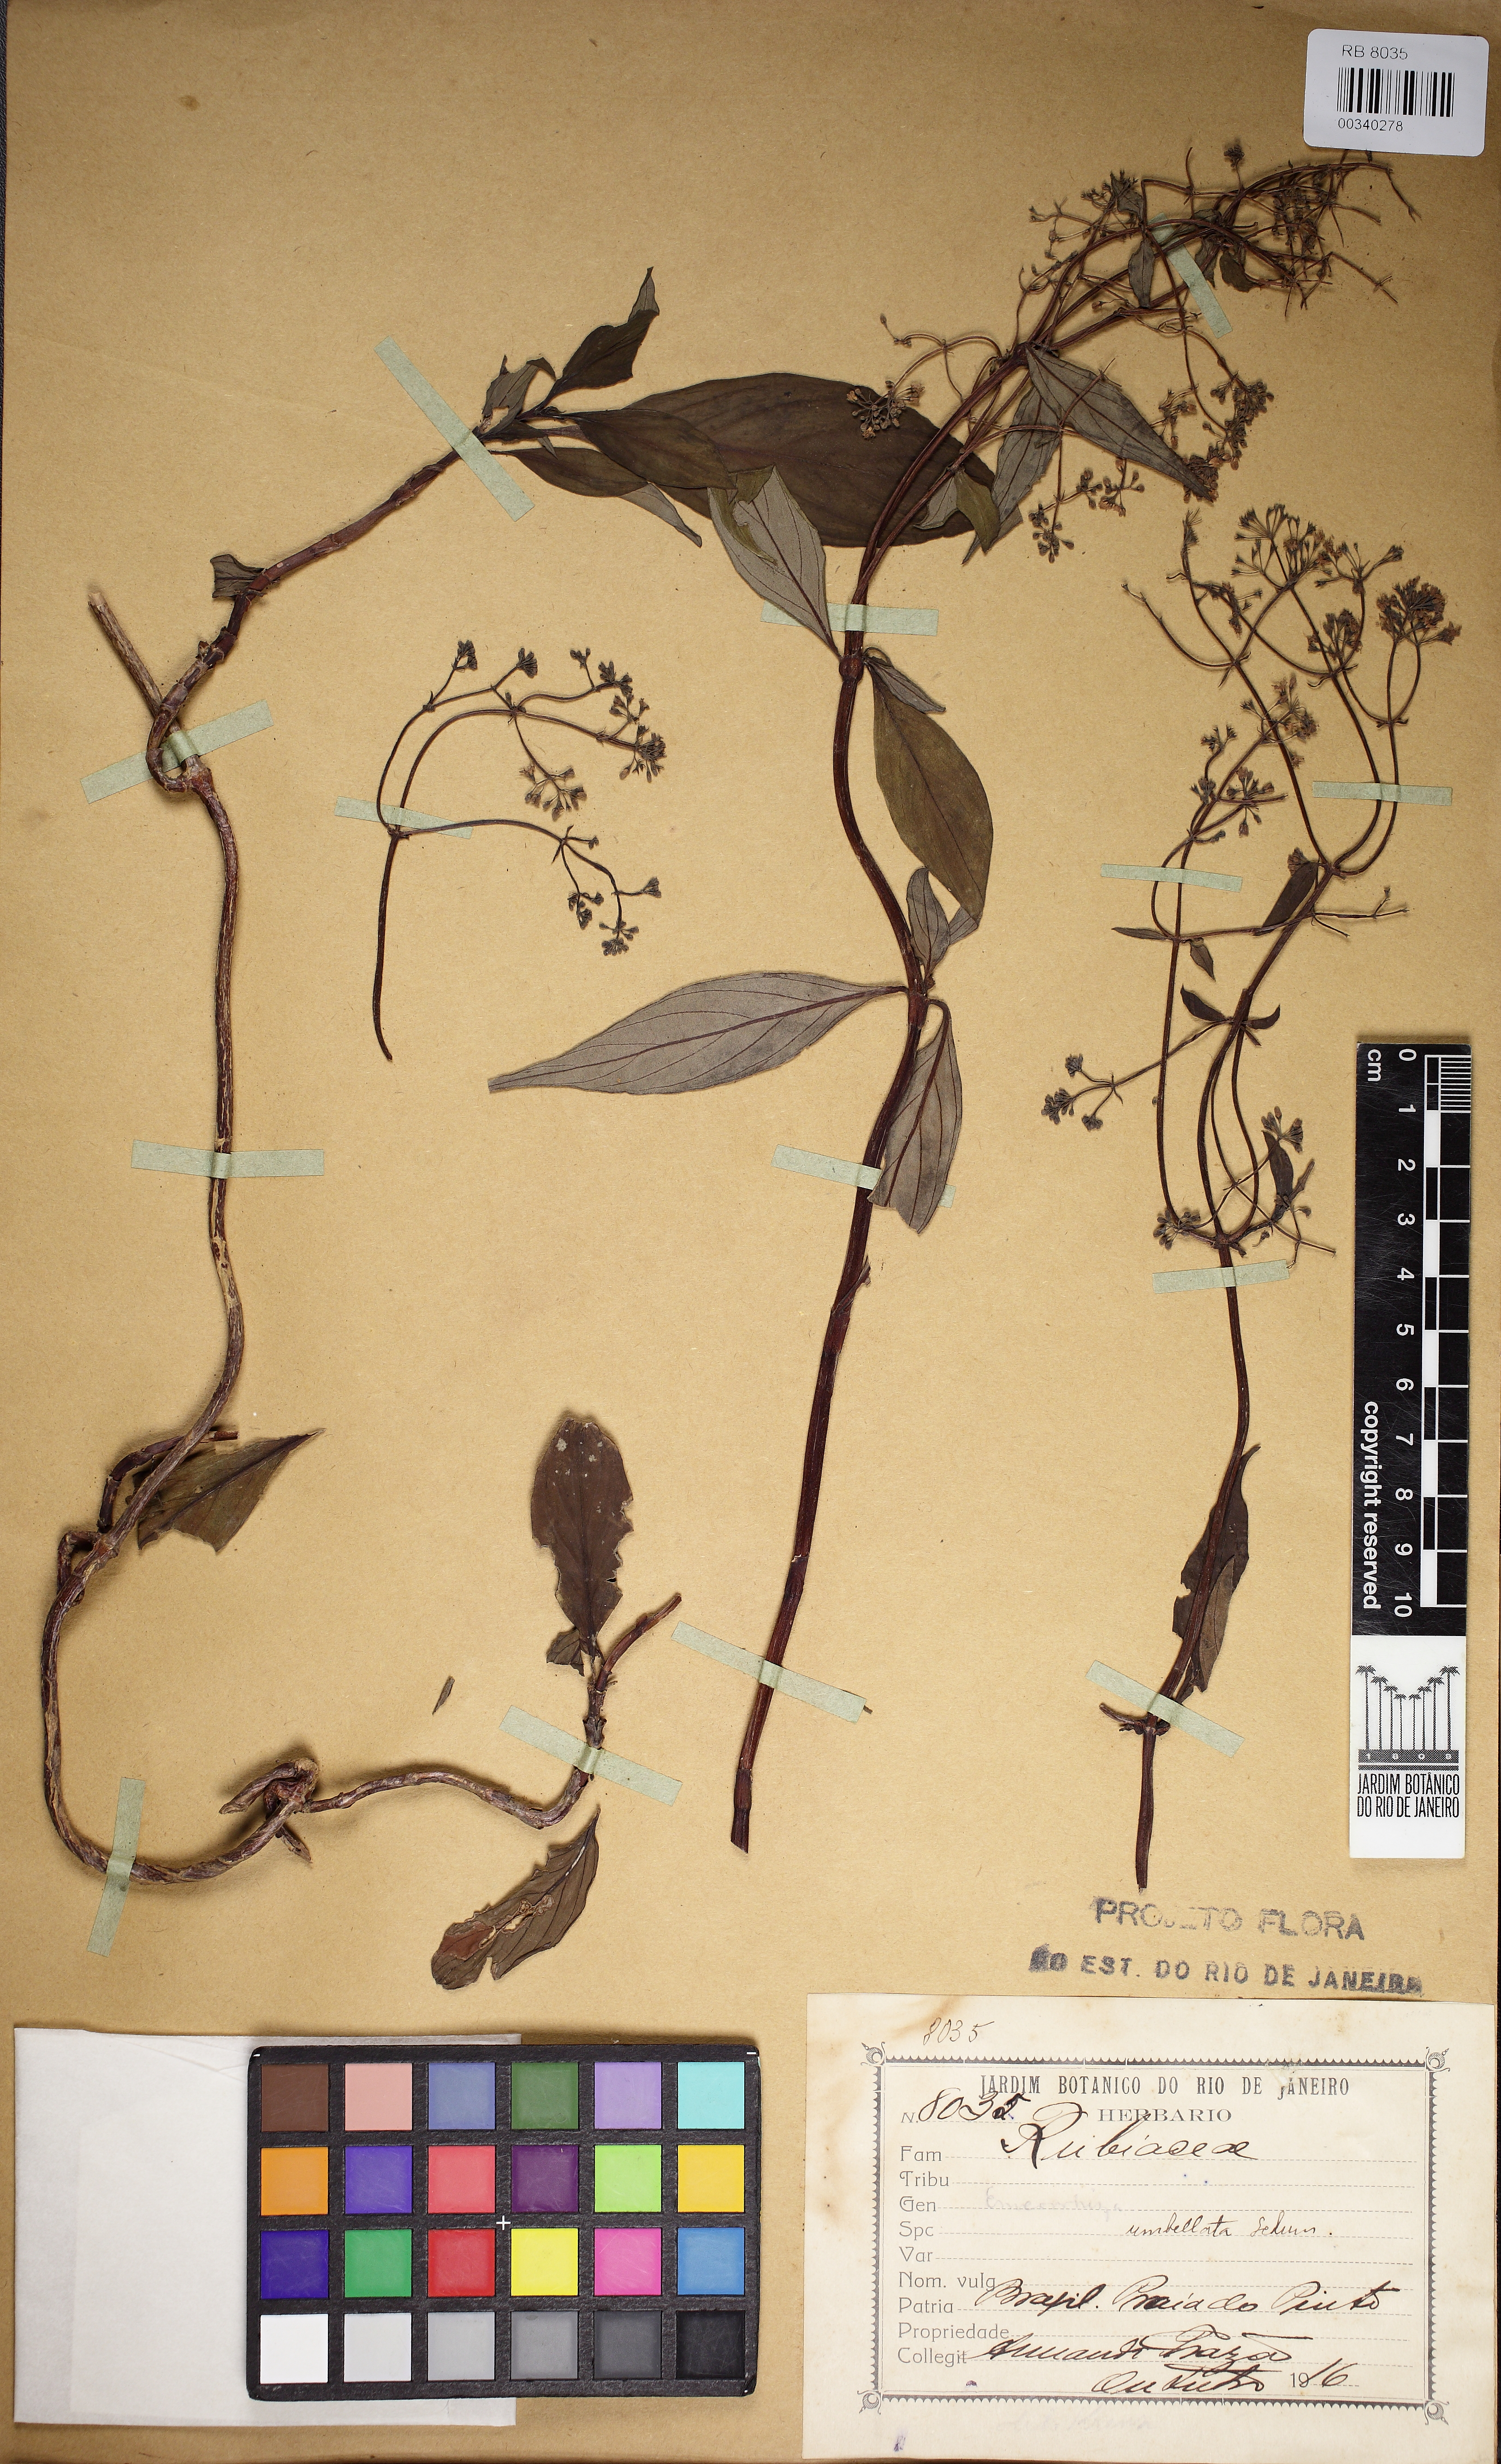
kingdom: Plantae
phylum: Tracheophyta
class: Magnoliopsida
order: Gentianales
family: Rubiaceae
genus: Emmeorhiza
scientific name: Emmeorhiza umbellata
